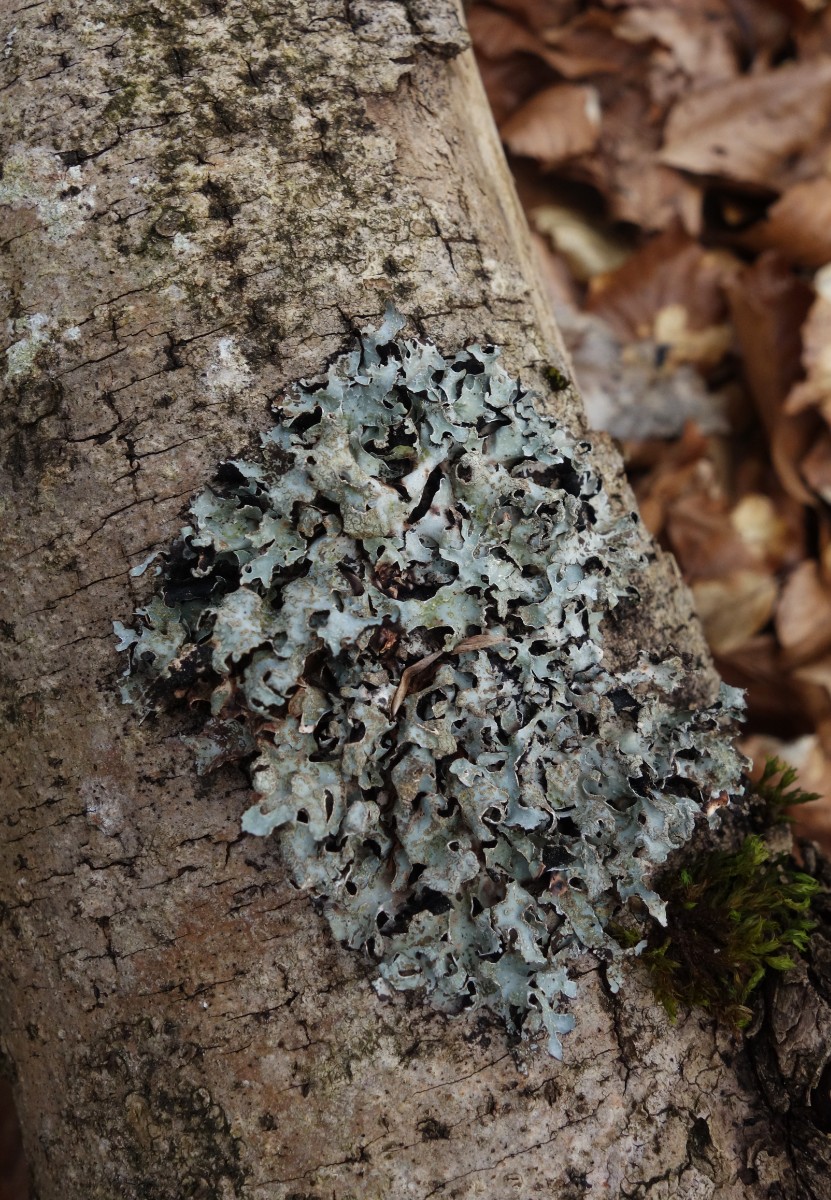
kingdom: Fungi
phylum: Ascomycota
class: Lecanoromycetes
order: Lecanorales
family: Parmeliaceae
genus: Parmelia
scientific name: Parmelia sulcata
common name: rynket skållav
